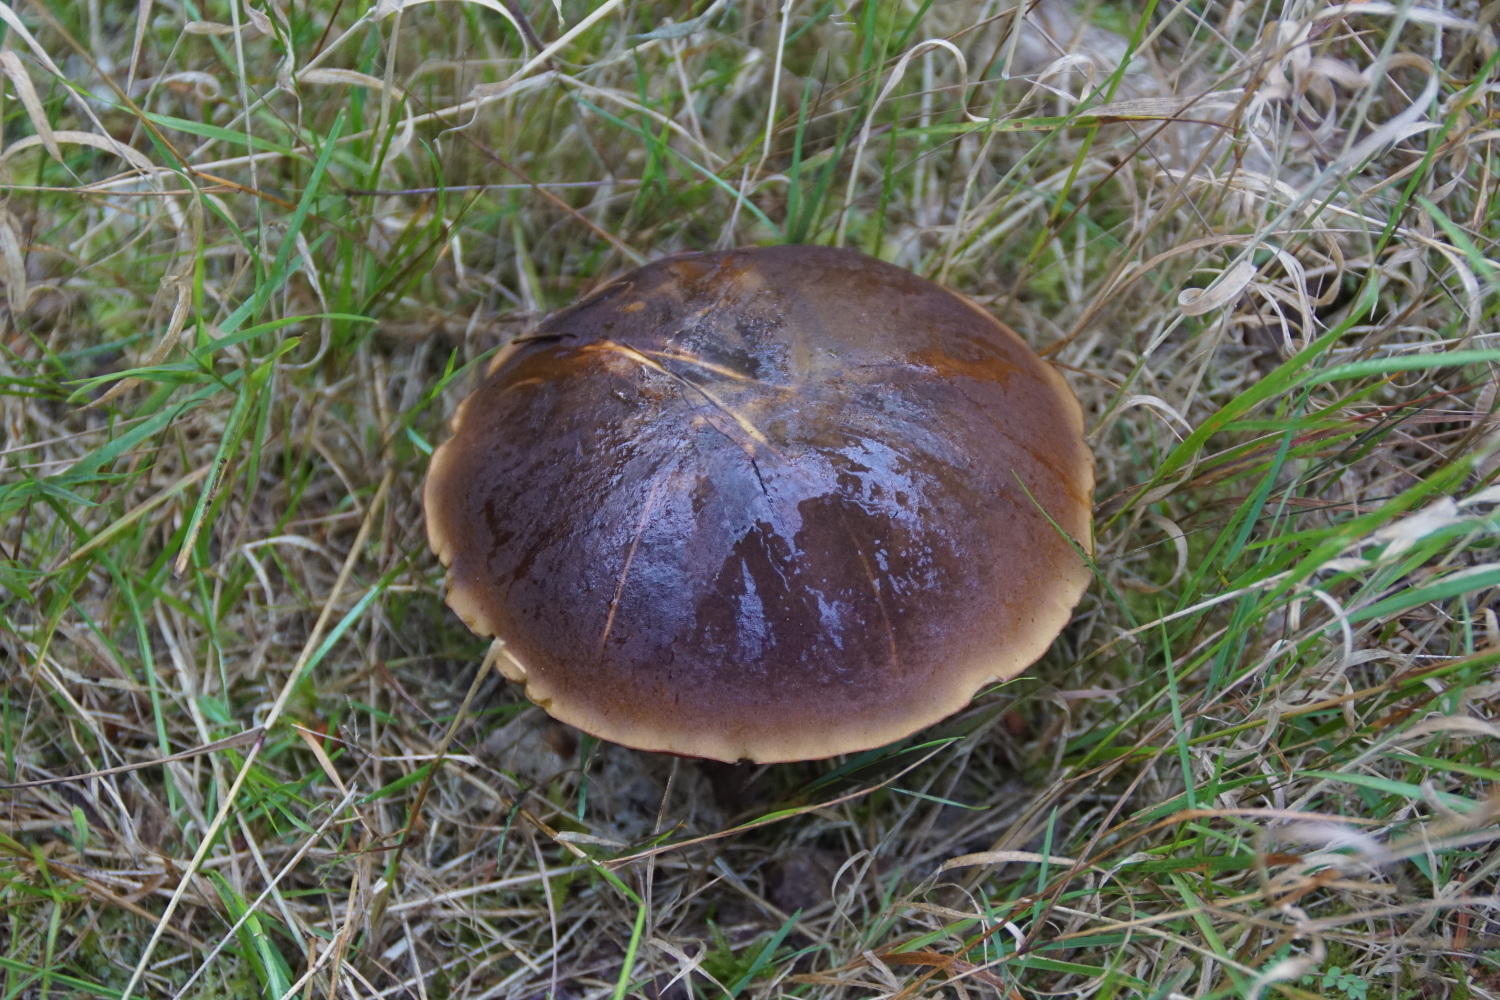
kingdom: Fungi
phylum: Basidiomycota
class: Agaricomycetes
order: Boletales
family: Boletaceae
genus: Neoboletus
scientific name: Neoboletus erythropus
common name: punktstokket indigorørhat
